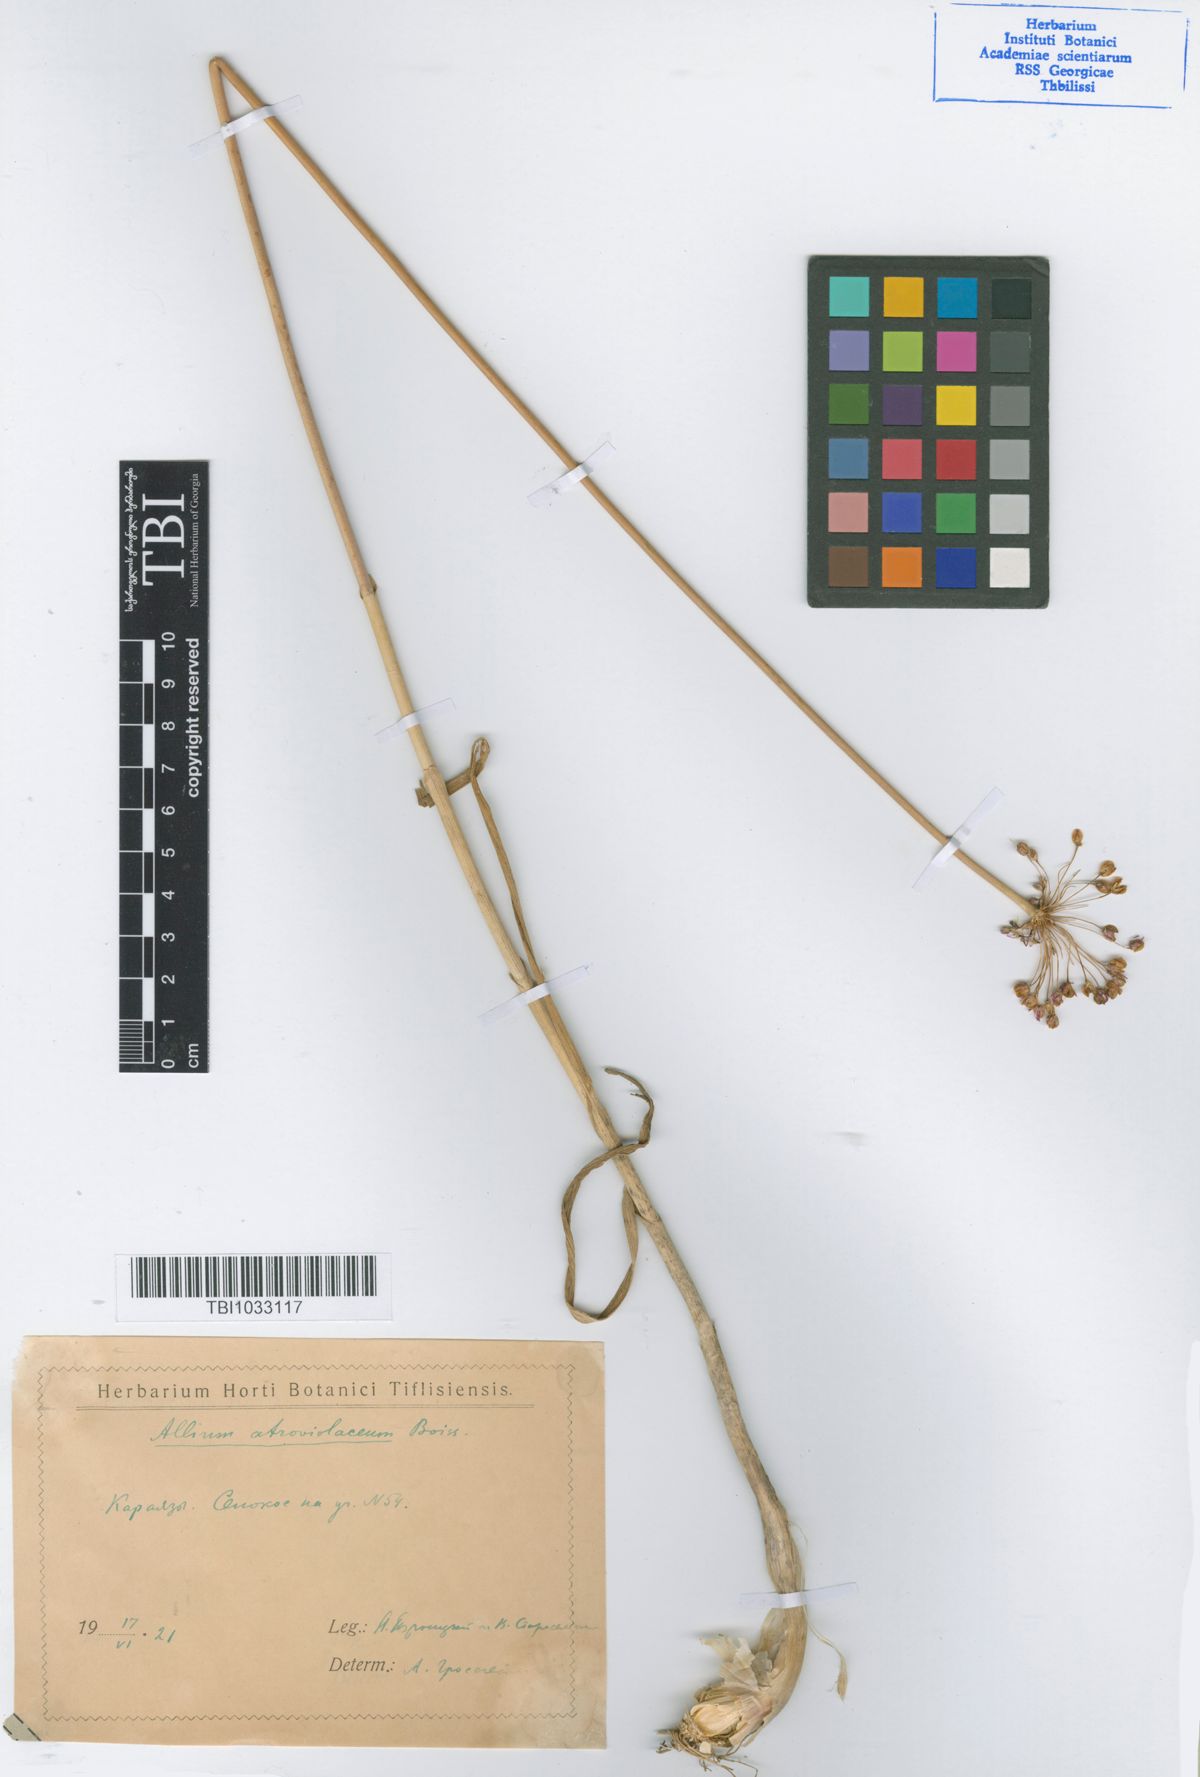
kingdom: Plantae
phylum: Tracheophyta
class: Liliopsida
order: Asparagales
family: Amaryllidaceae
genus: Allium
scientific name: Allium atroviolaceum
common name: Broadleaf wild leek
